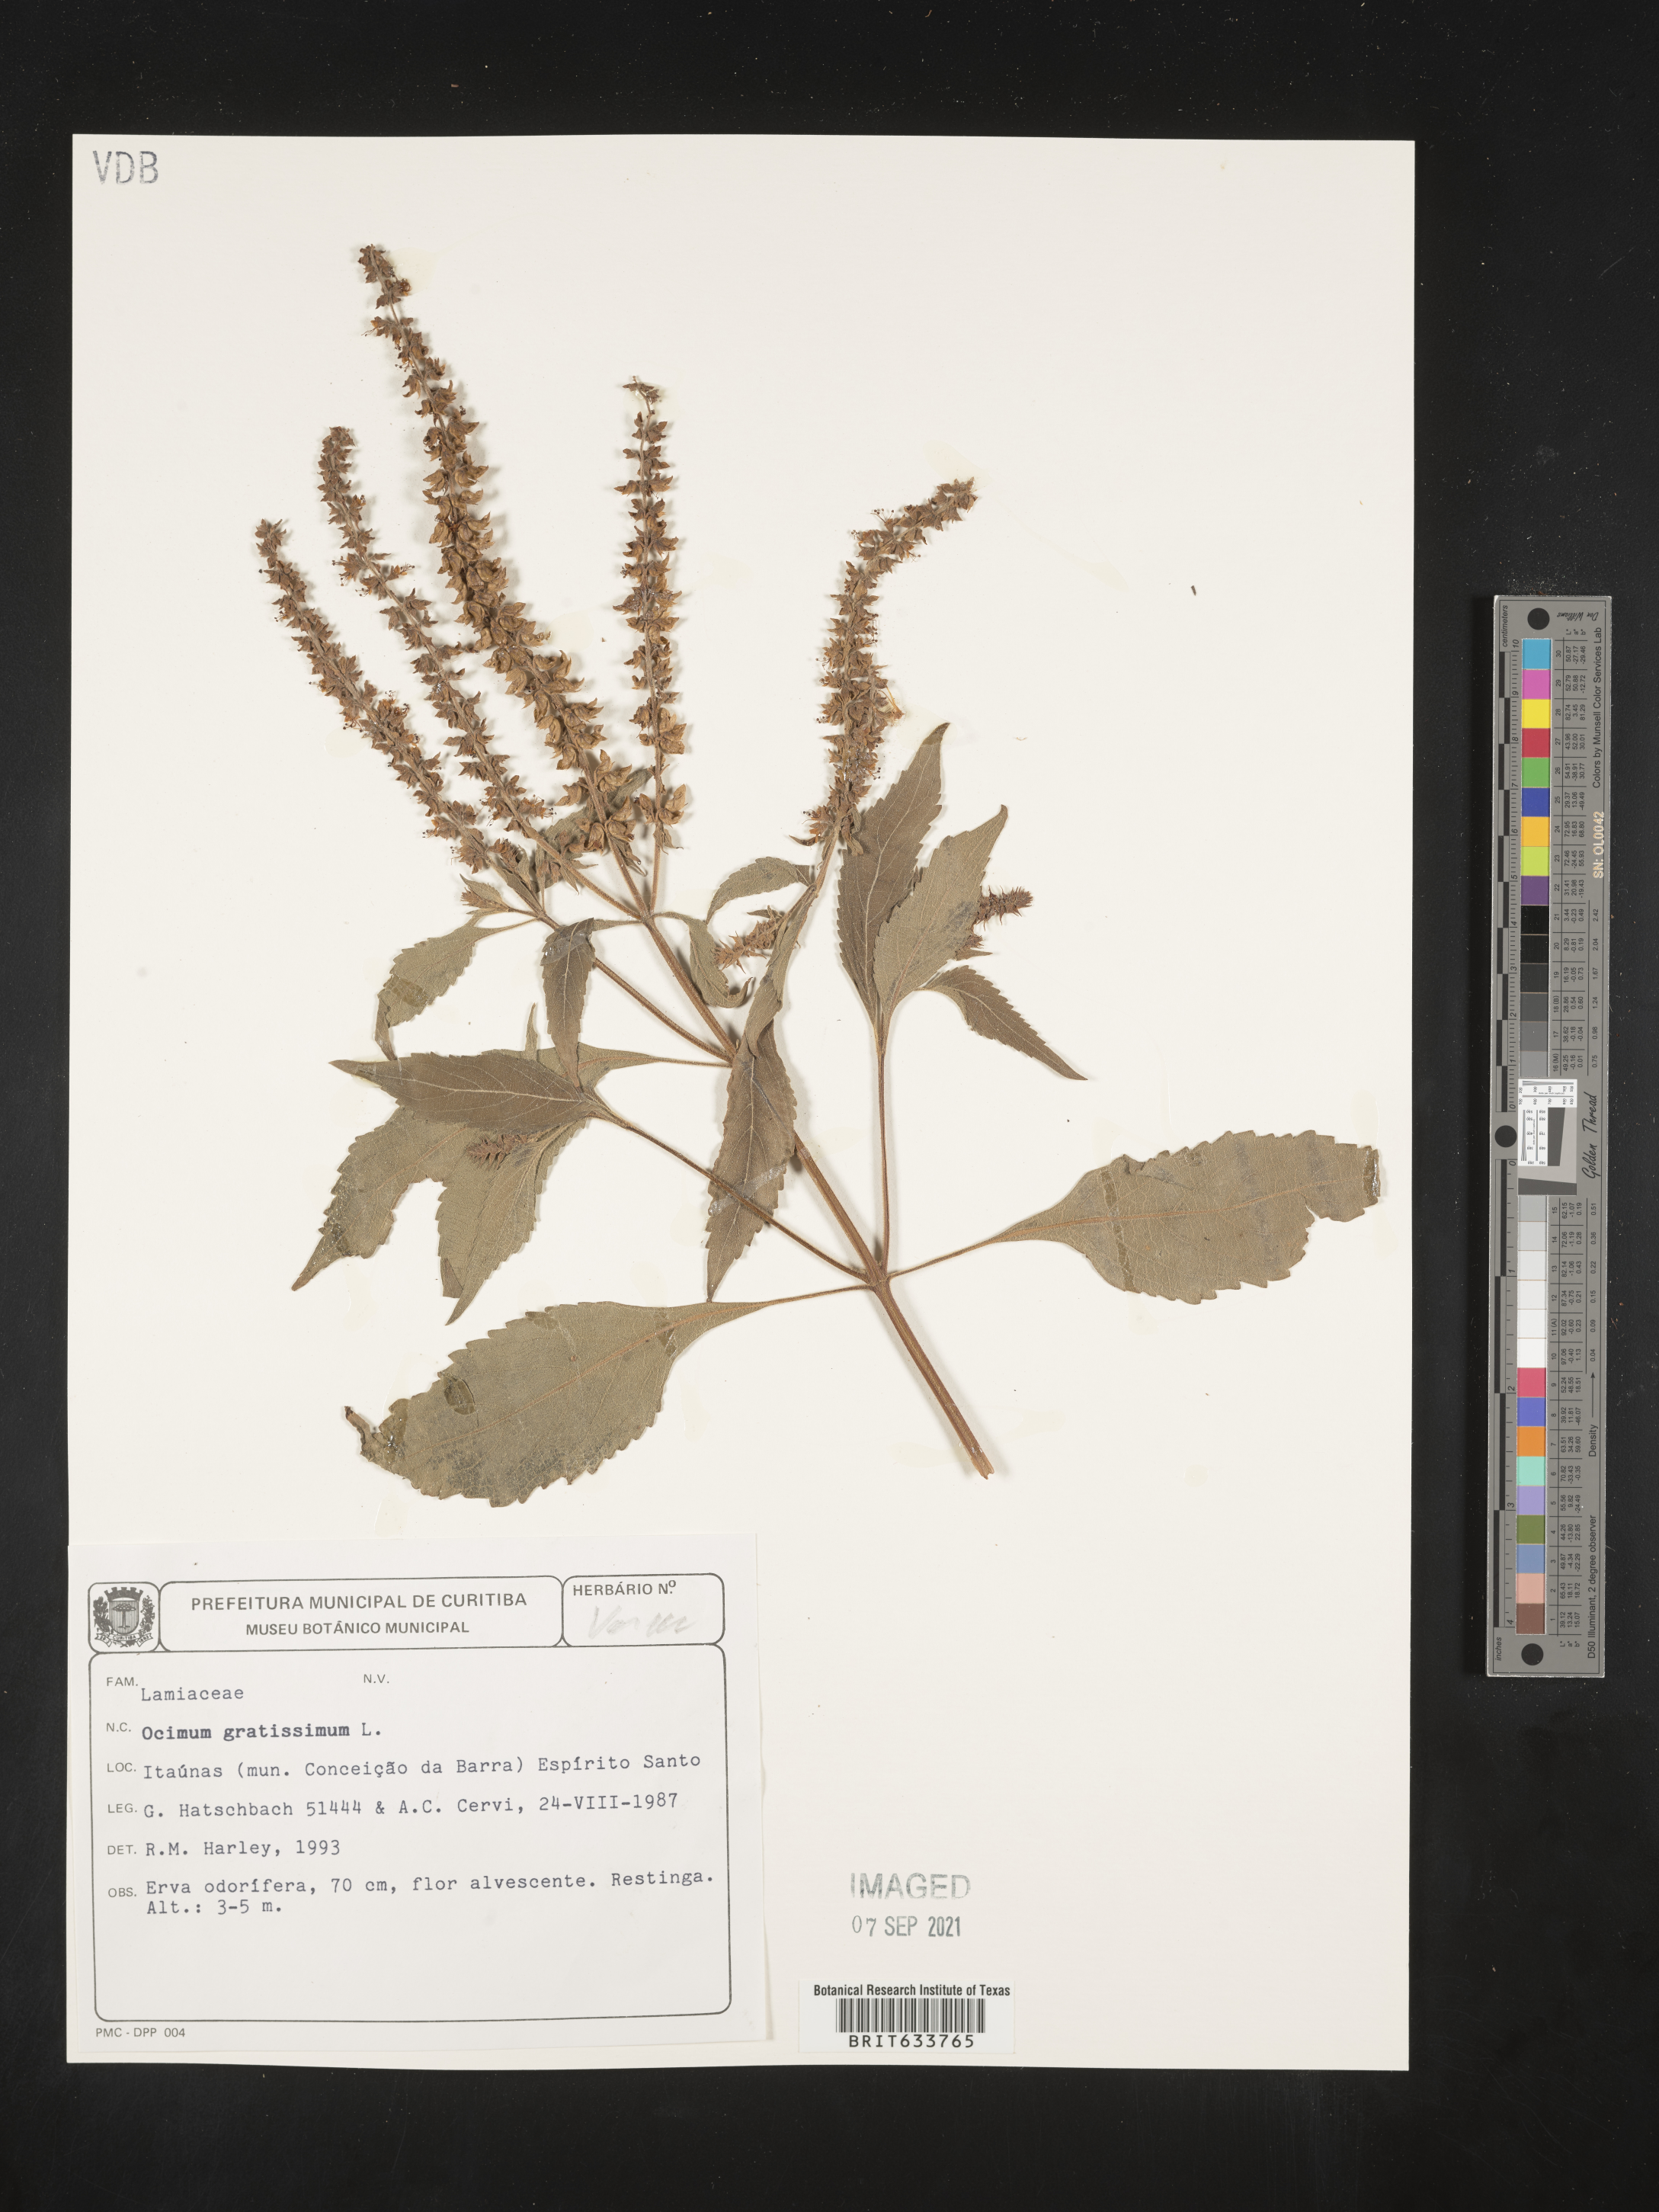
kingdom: Plantae
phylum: Tracheophyta
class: Magnoliopsida
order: Lamiales
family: Lamiaceae
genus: Ocimum
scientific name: Ocimum
